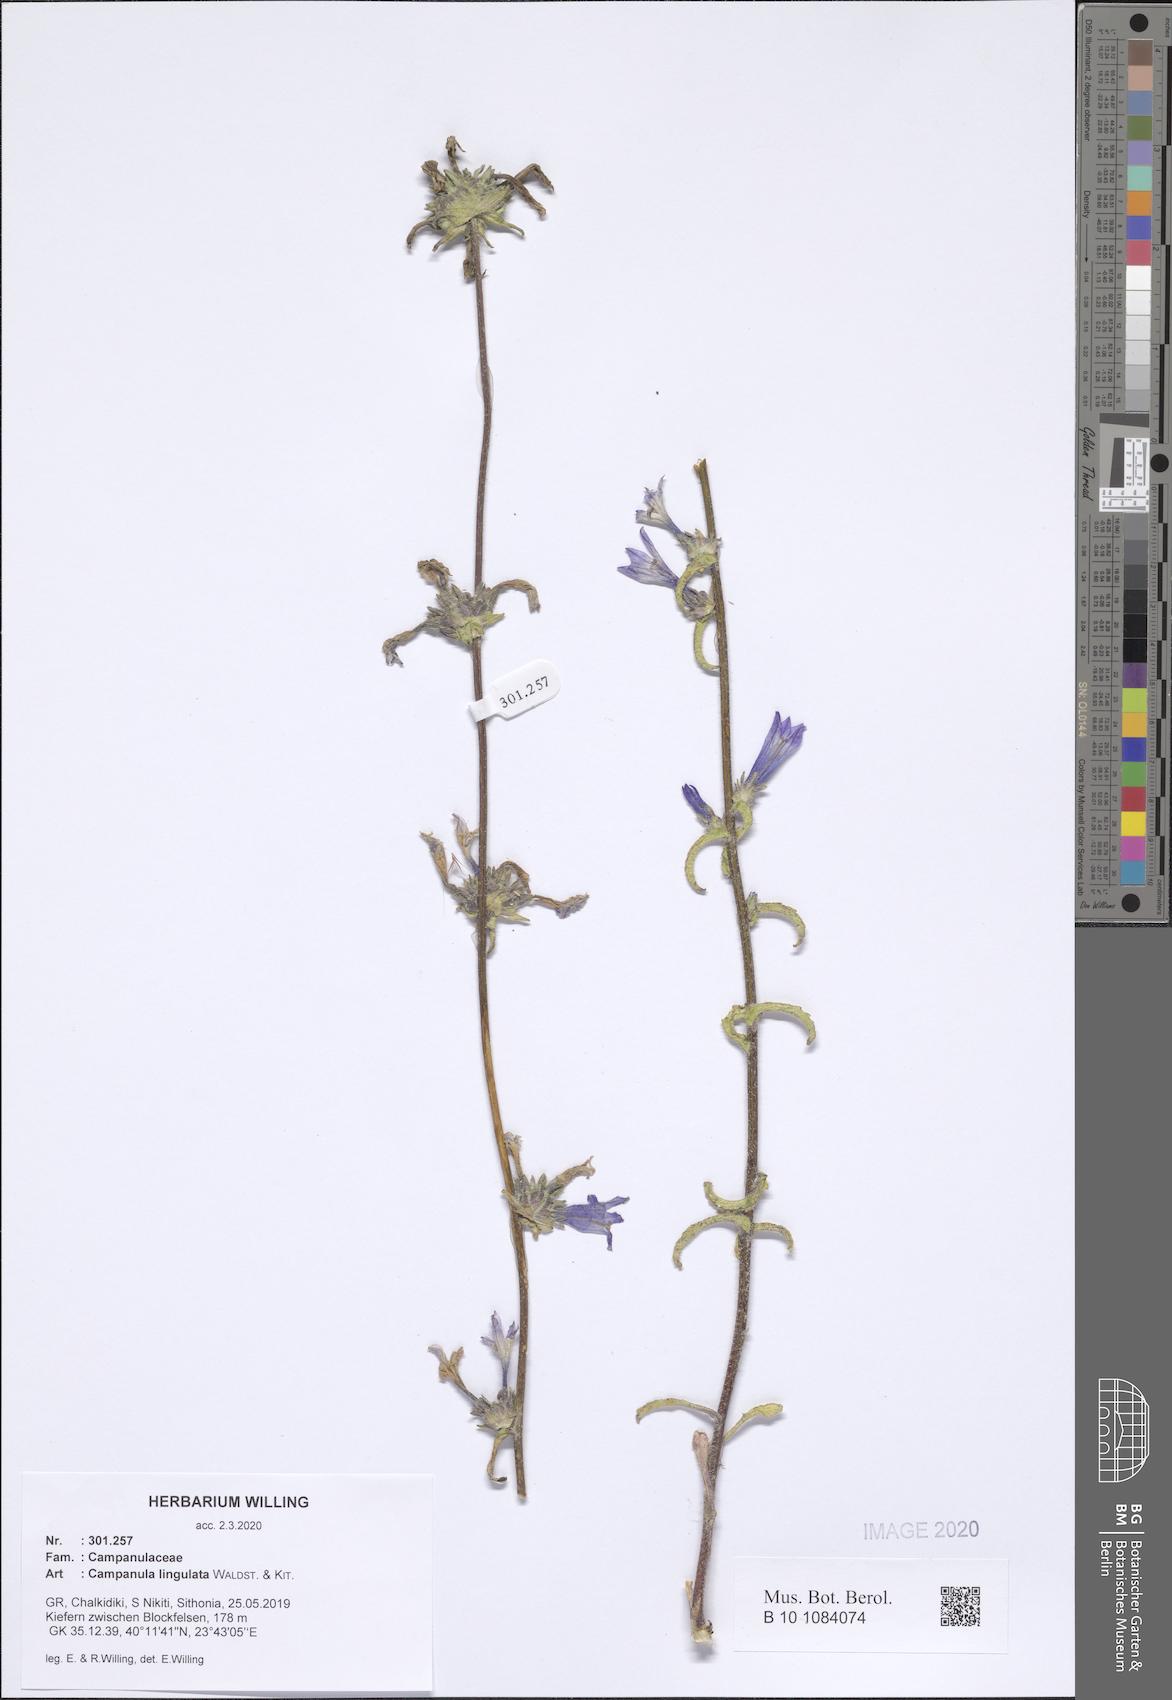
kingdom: Plantae
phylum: Tracheophyta
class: Magnoliopsida
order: Asterales
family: Campanulaceae
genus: Campanula
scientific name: Campanula lingulata
